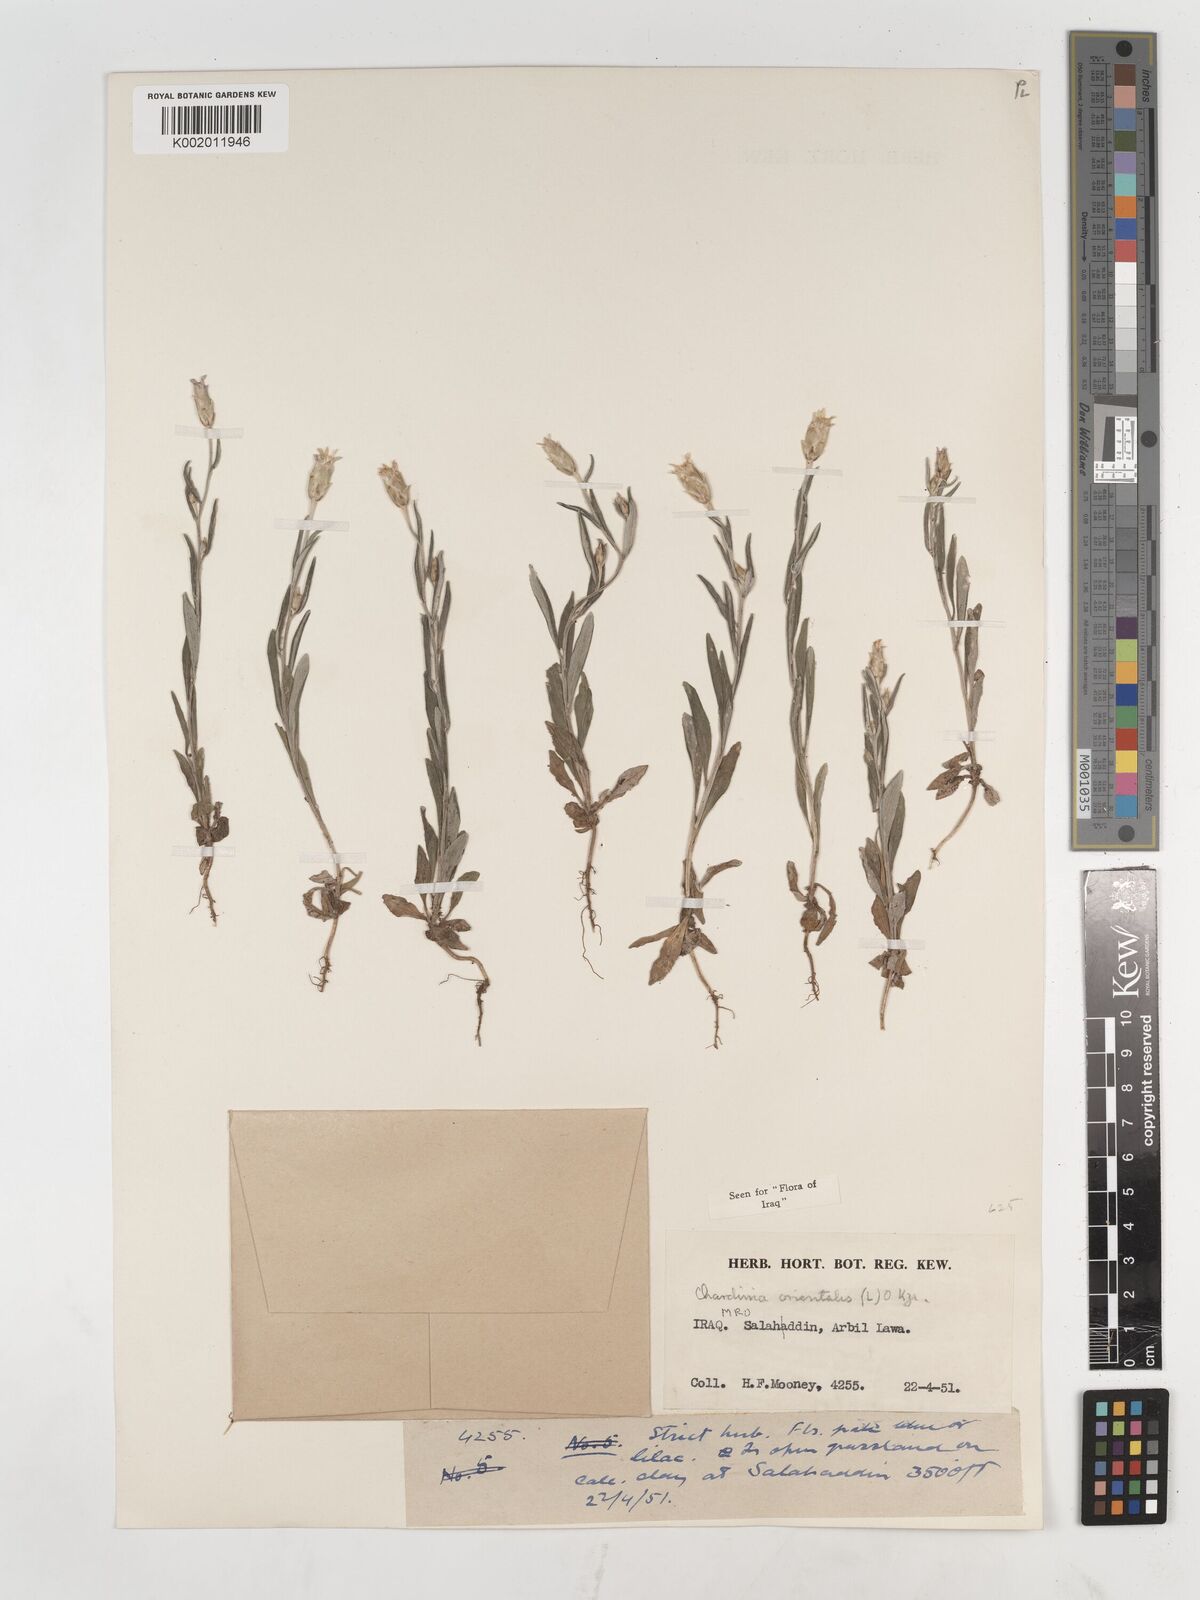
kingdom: Plantae
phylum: Tracheophyta
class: Magnoliopsida
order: Asterales
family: Asteraceae
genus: Chardinia
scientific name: Chardinia orientalis
